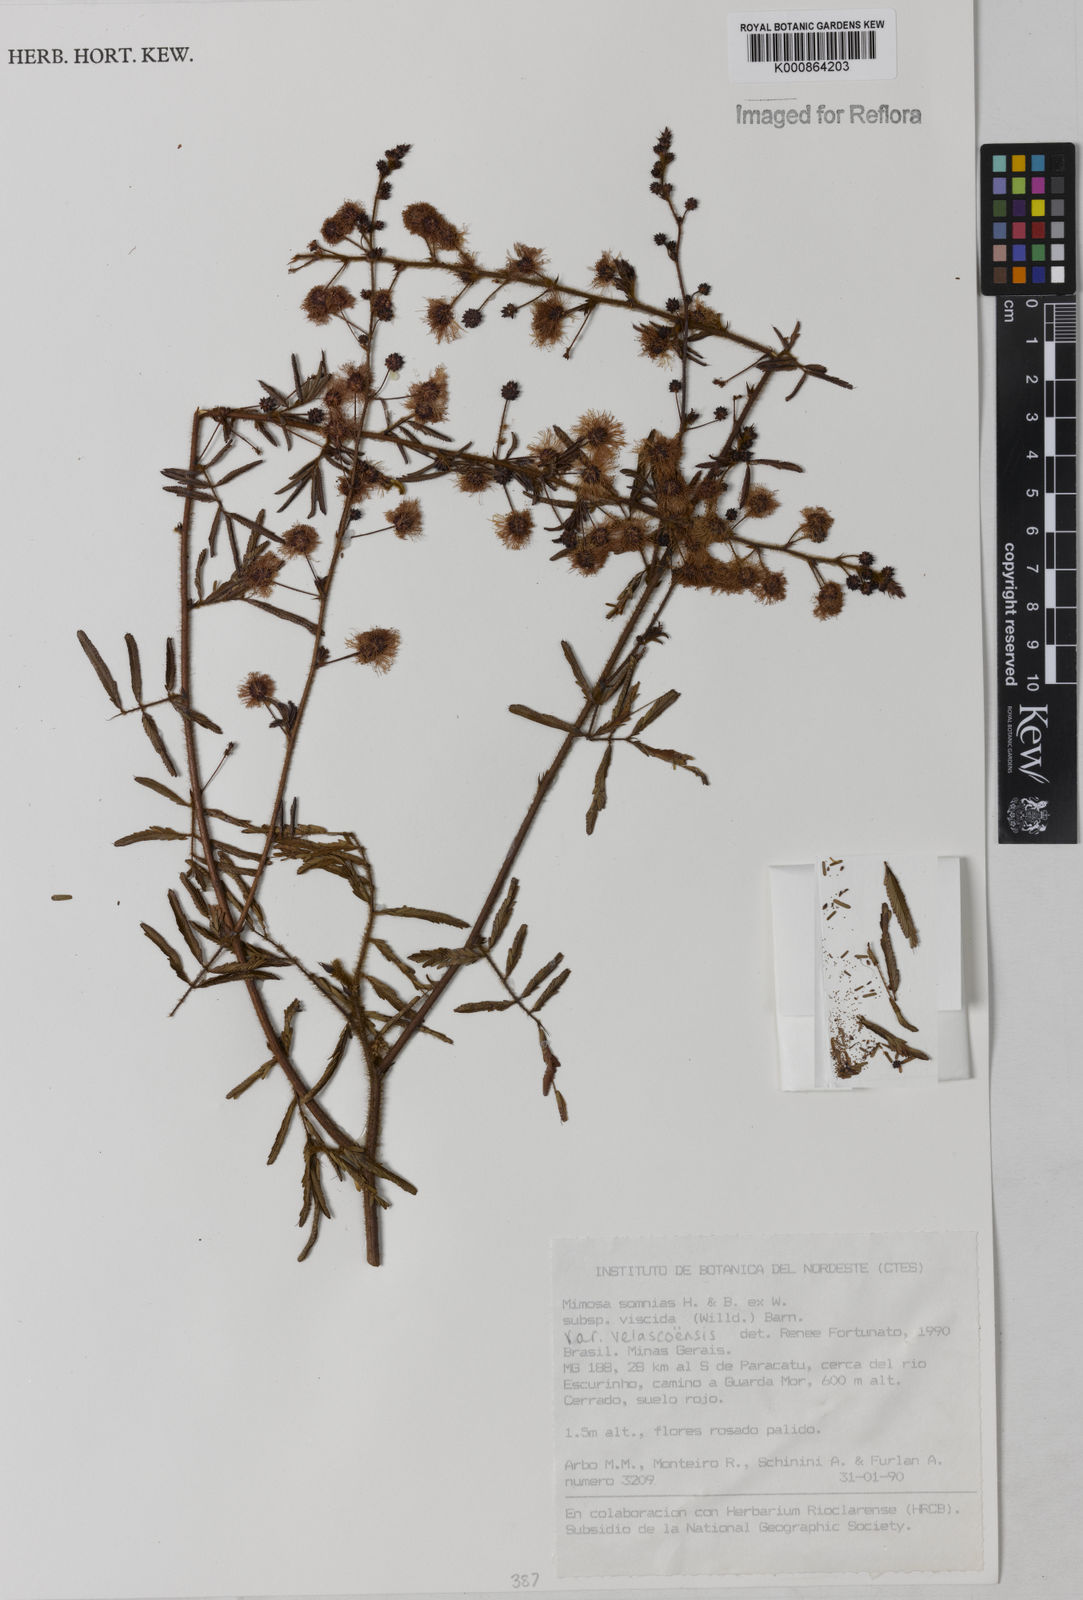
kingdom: Plantae
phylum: Tracheophyta
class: Magnoliopsida
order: Fabales
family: Fabaceae
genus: Mimosa
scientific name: Mimosa somnians
